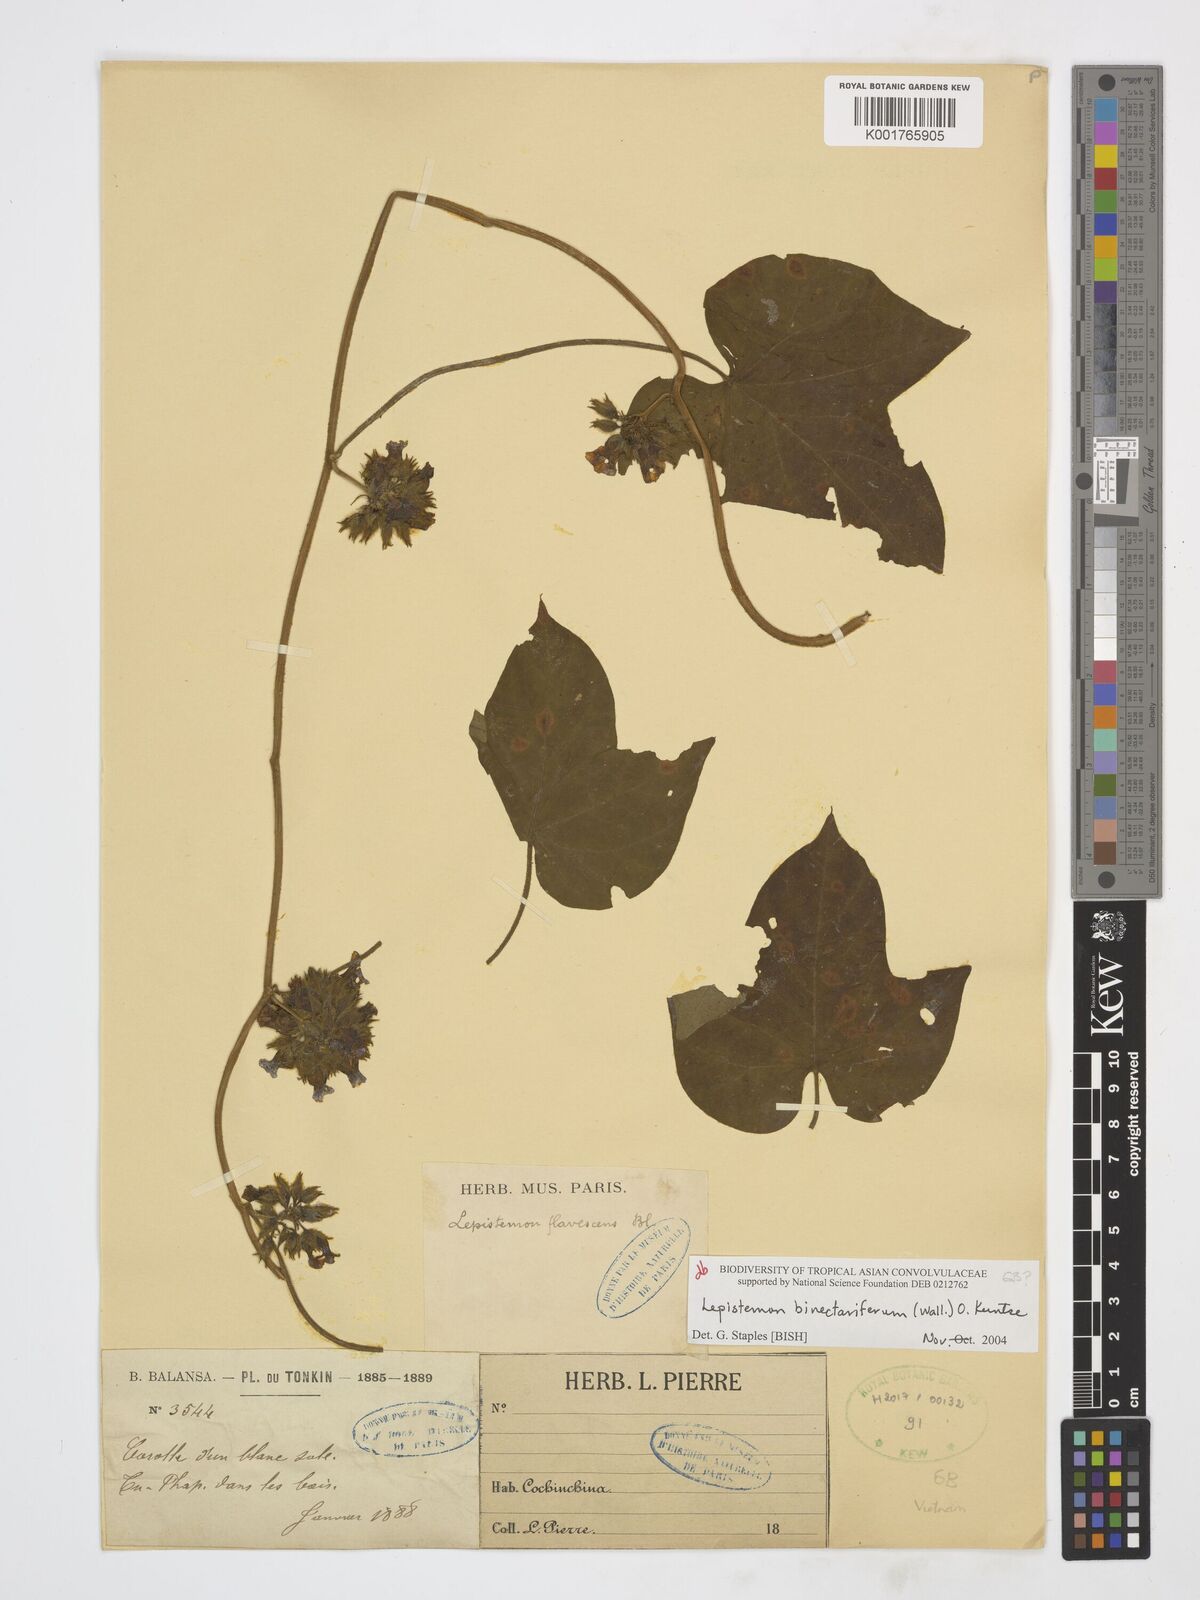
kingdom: Plantae
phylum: Tracheophyta
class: Magnoliopsida
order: Solanales
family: Convolvulaceae
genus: Lepistemon
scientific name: Lepistemon
